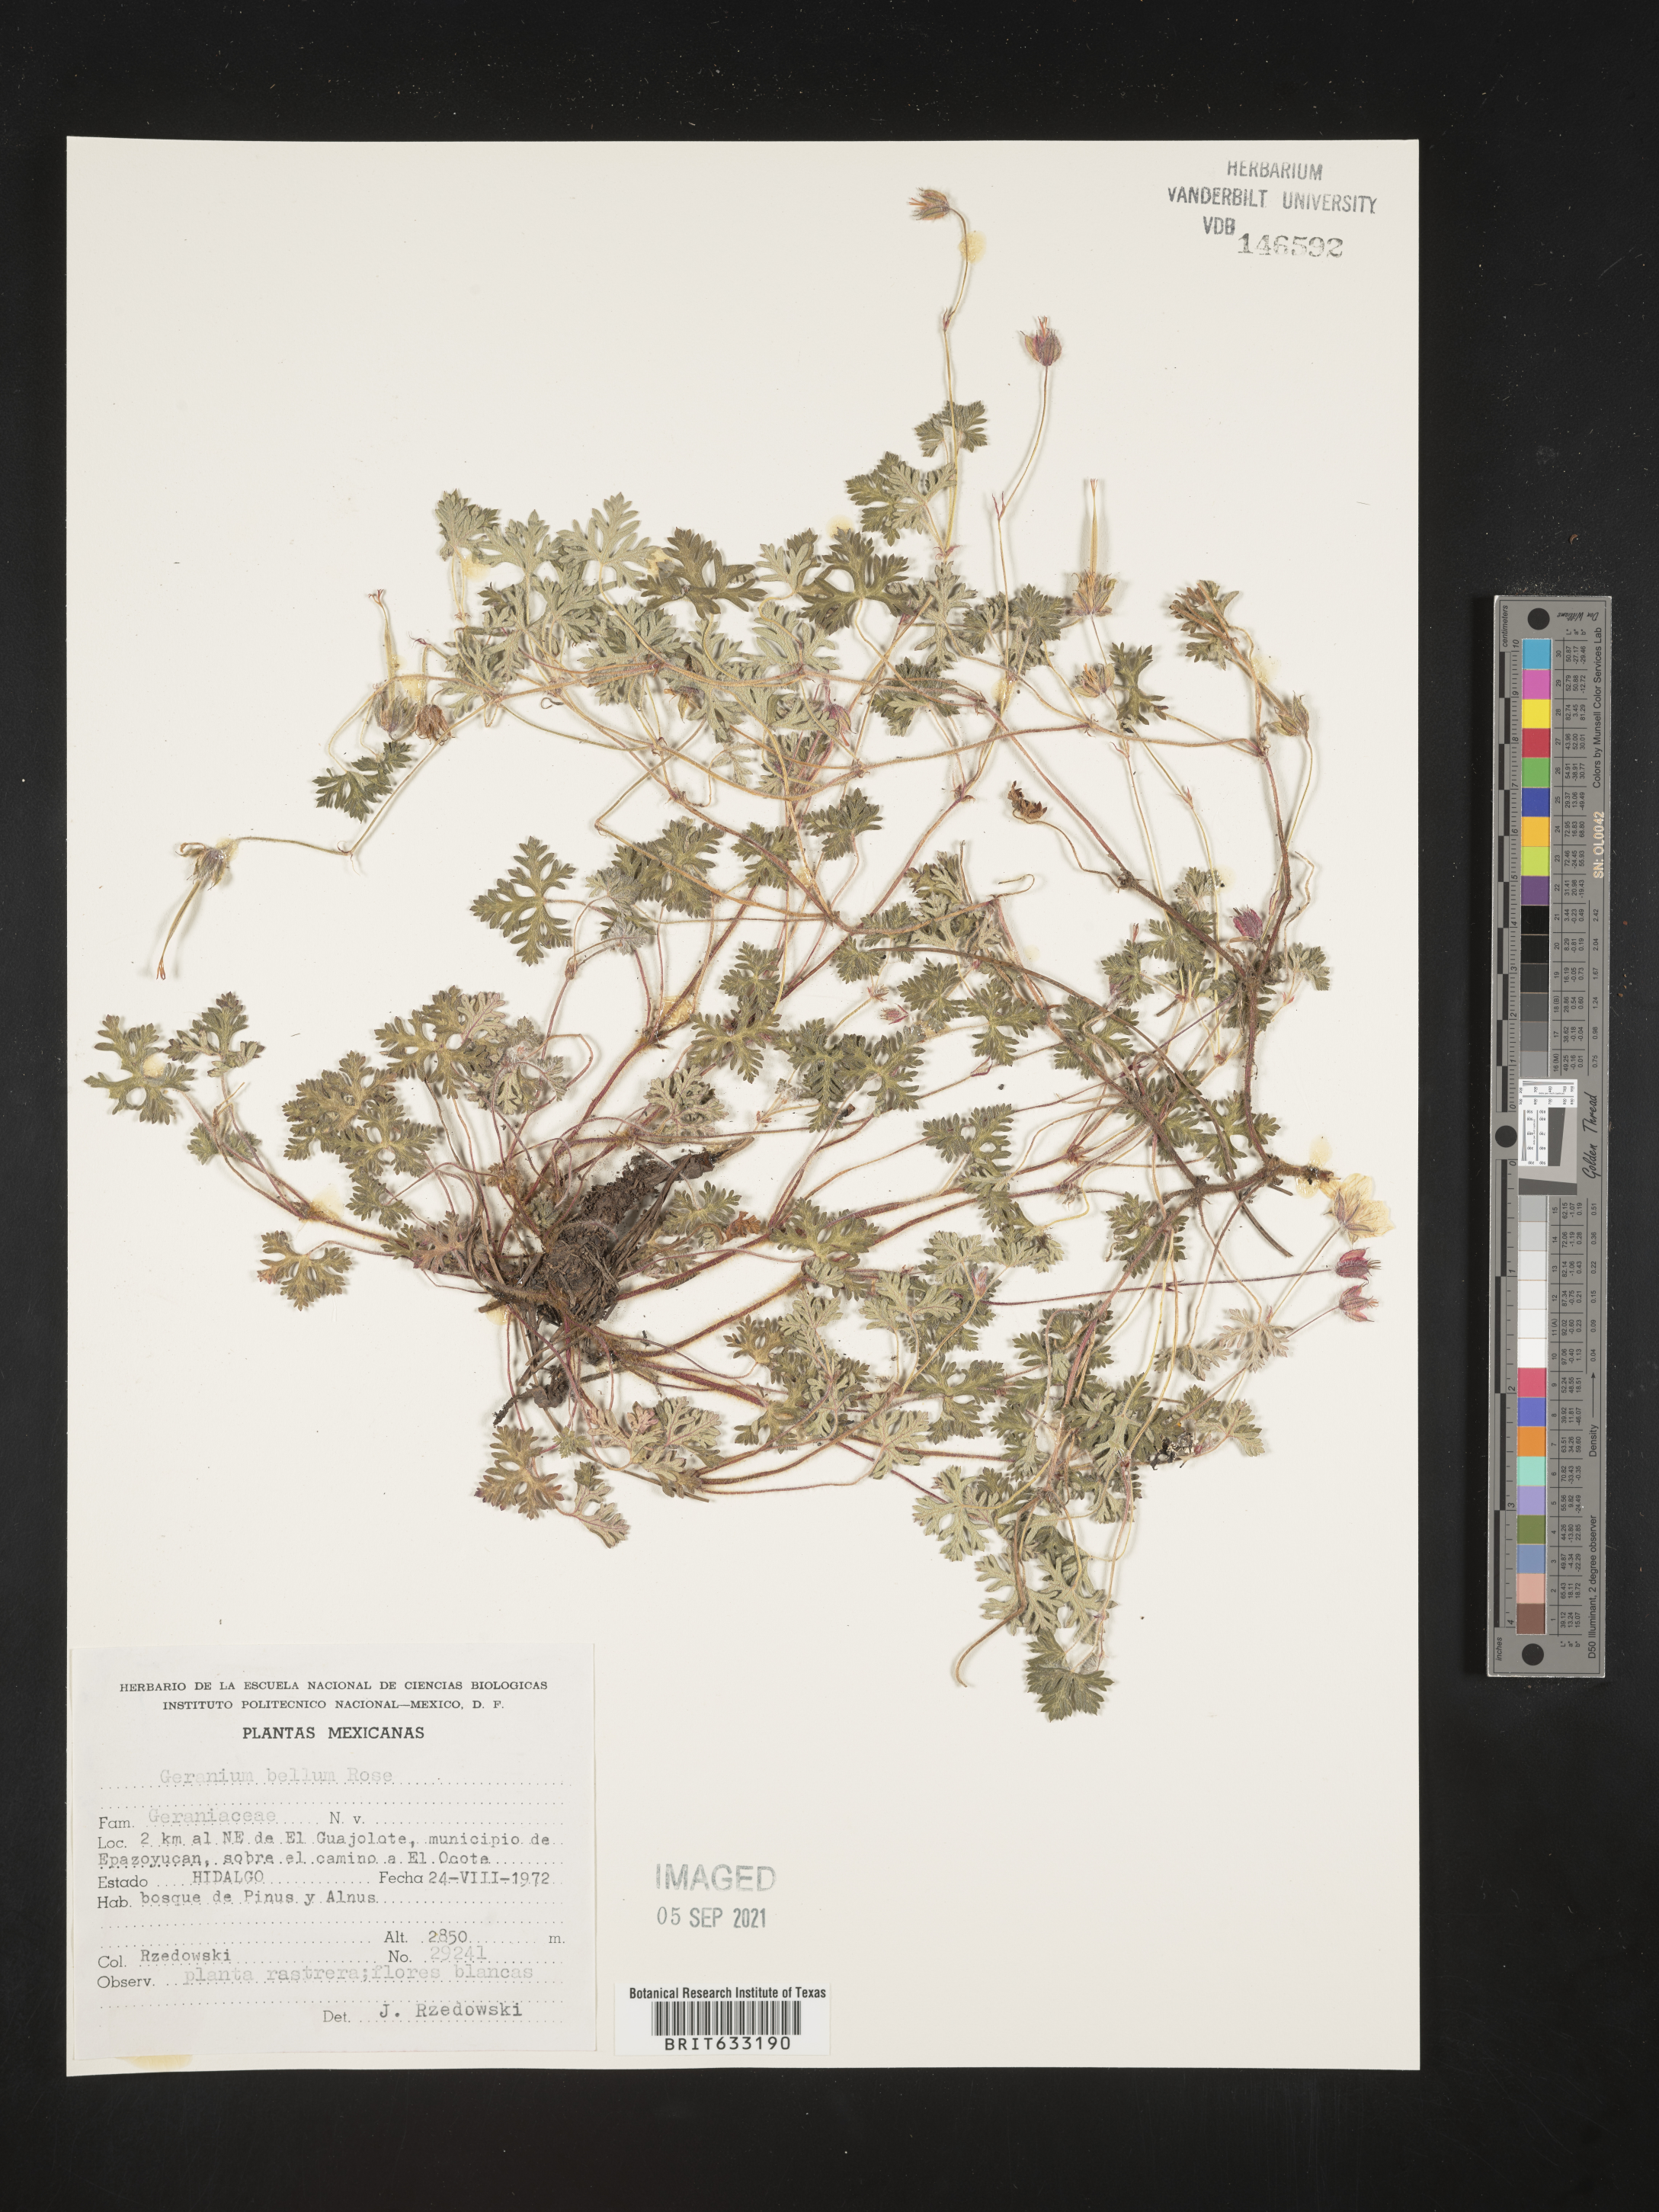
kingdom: Plantae
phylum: Tracheophyta
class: Magnoliopsida
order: Geraniales
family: Geraniaceae
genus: Geranium
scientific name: Geranium
